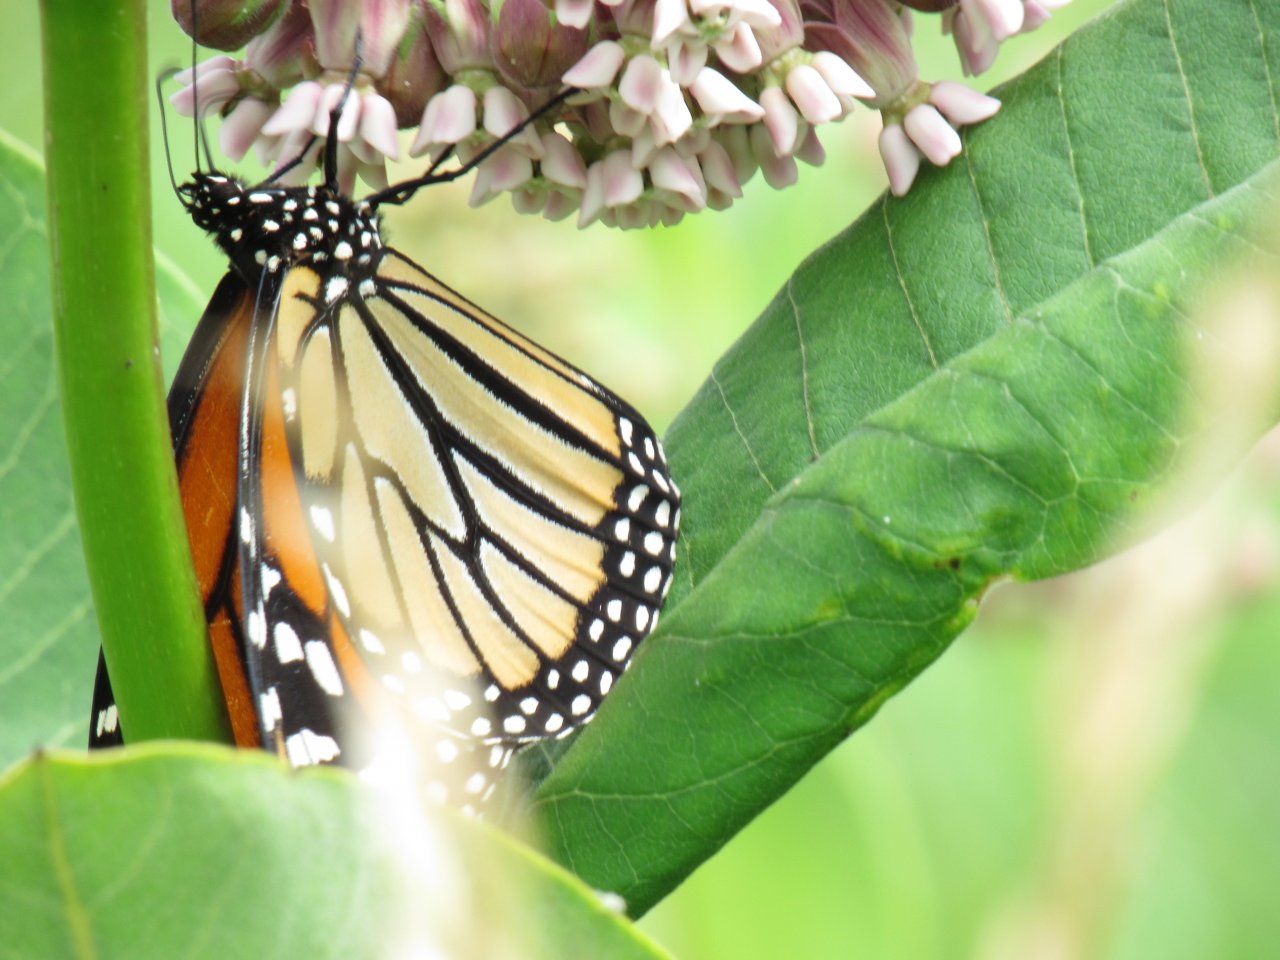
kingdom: Animalia
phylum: Arthropoda
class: Insecta
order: Lepidoptera
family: Nymphalidae
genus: Danaus
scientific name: Danaus plexippus
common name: Monarch
